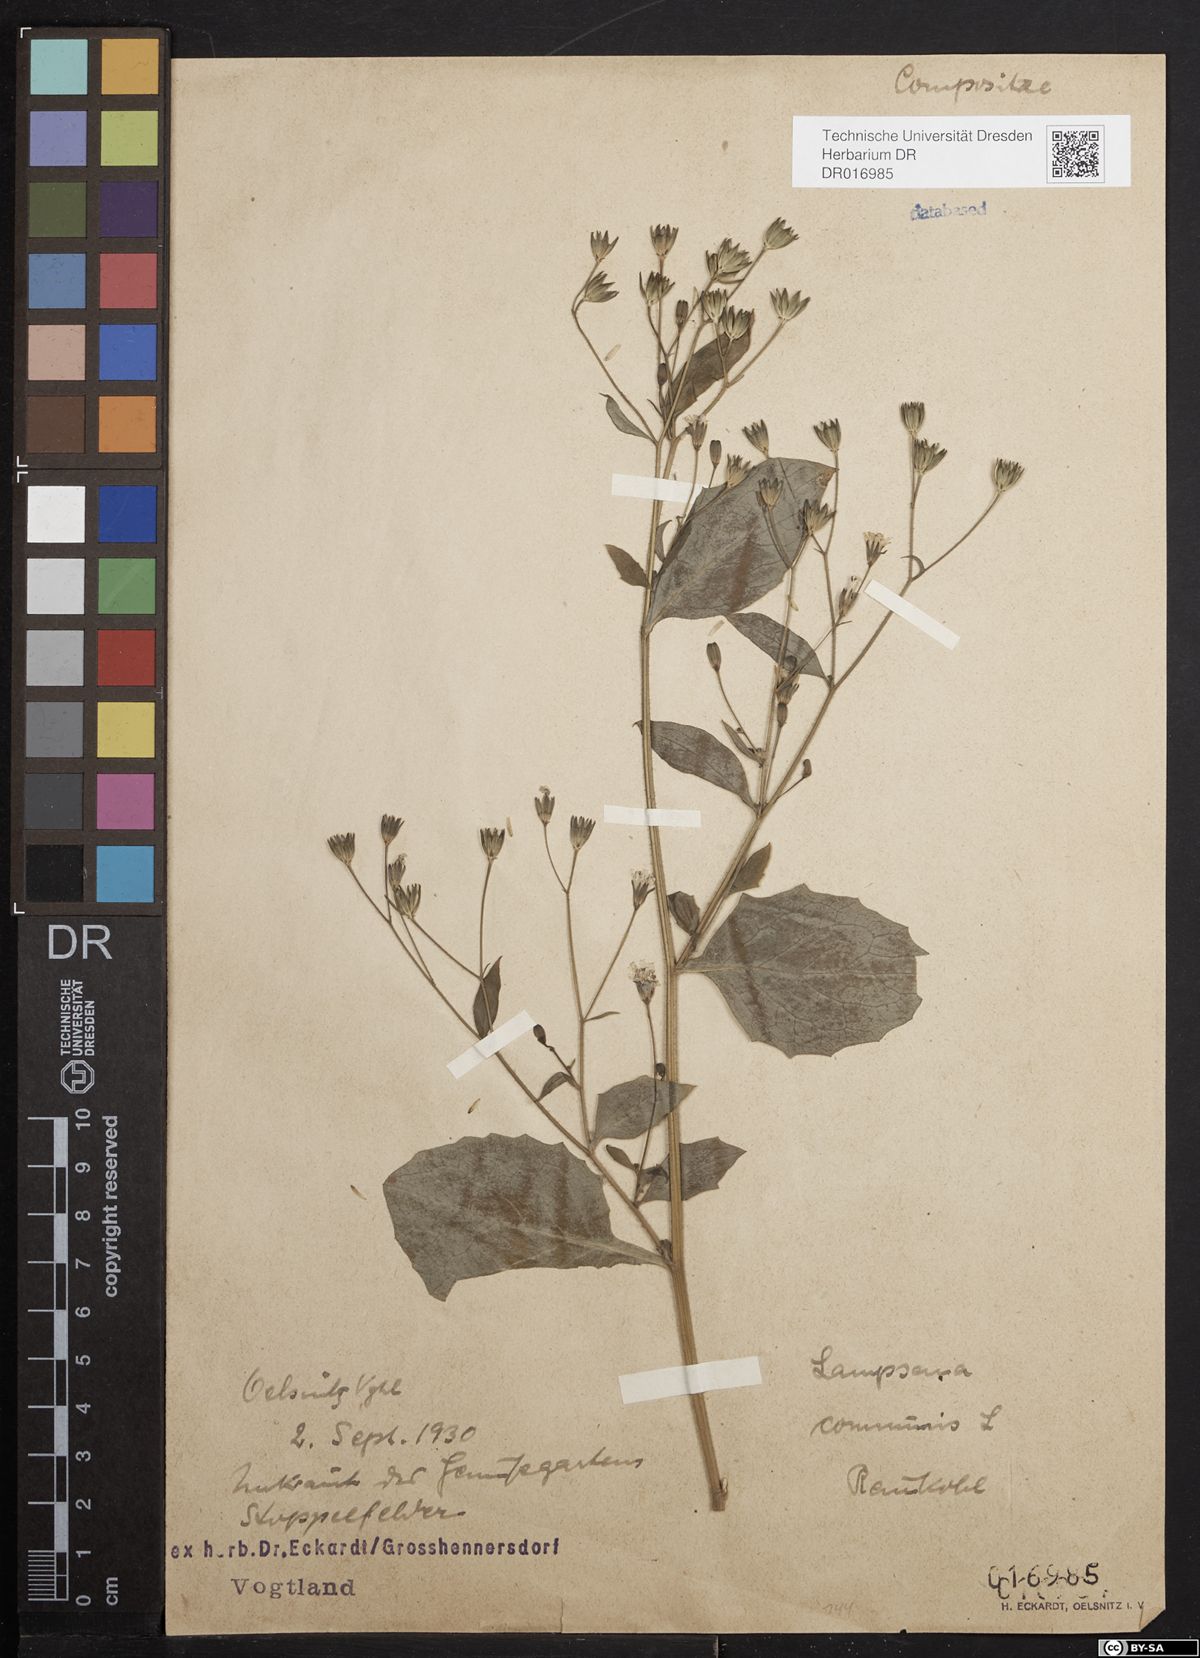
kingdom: Plantae
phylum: Tracheophyta
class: Magnoliopsida
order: Asterales
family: Asteraceae
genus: Lapsana
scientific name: Lapsana communis
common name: Nipplewort
